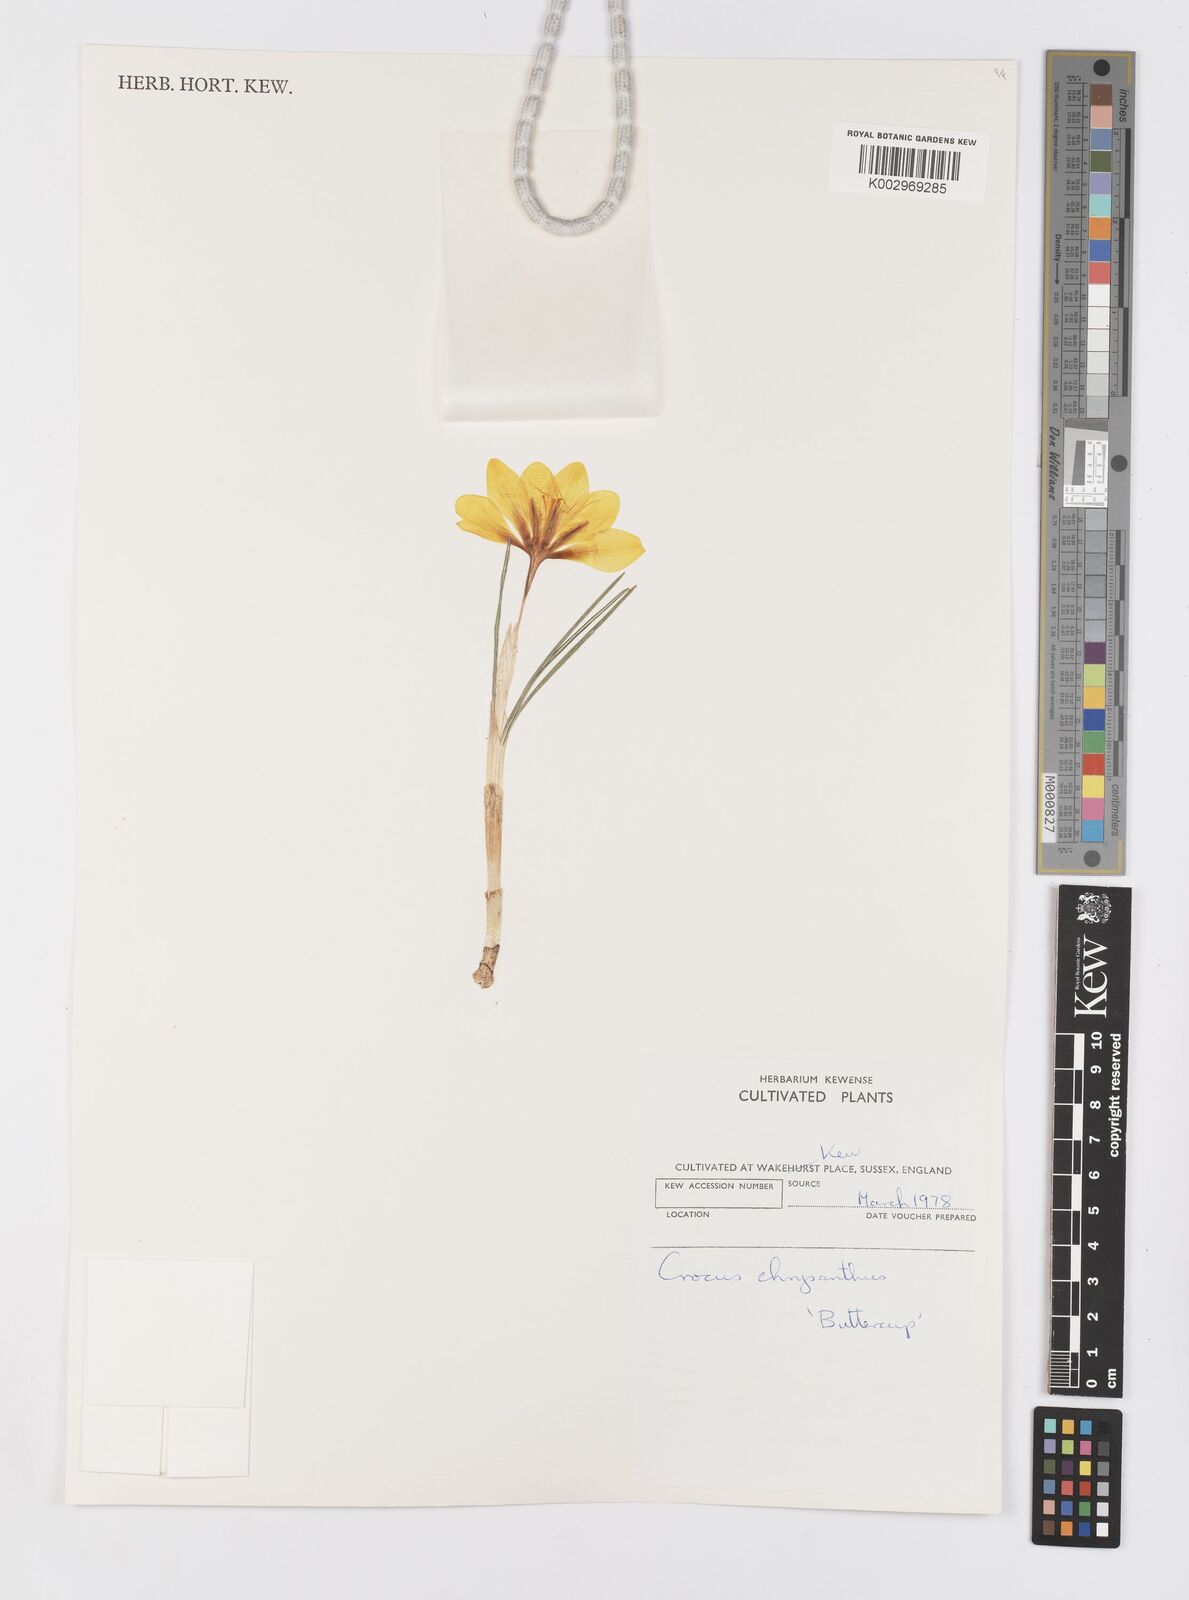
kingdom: Plantae
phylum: Tracheophyta
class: Liliopsida
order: Asparagales
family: Iridaceae
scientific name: Iridaceae
